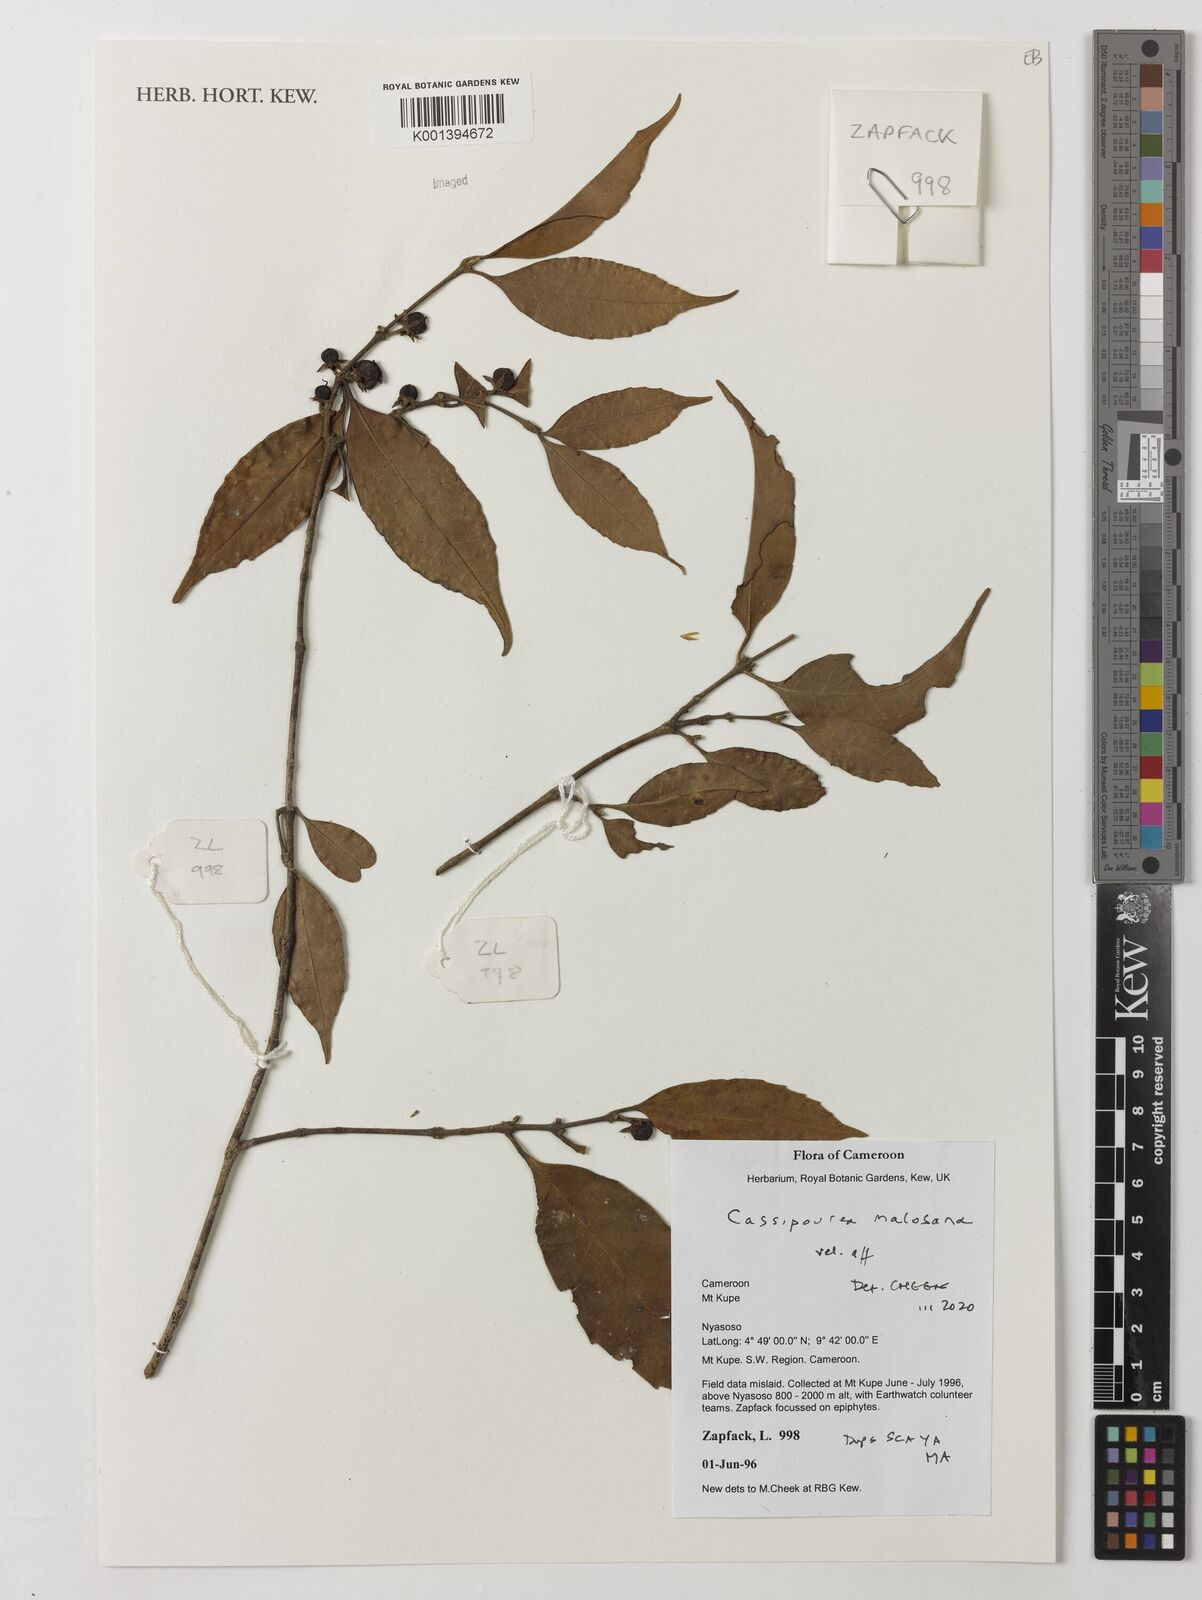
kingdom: Plantae
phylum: Tracheophyta
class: Magnoliopsida
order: Malpighiales
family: Rhizophoraceae
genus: Cassipourea
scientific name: Cassipourea malosana
